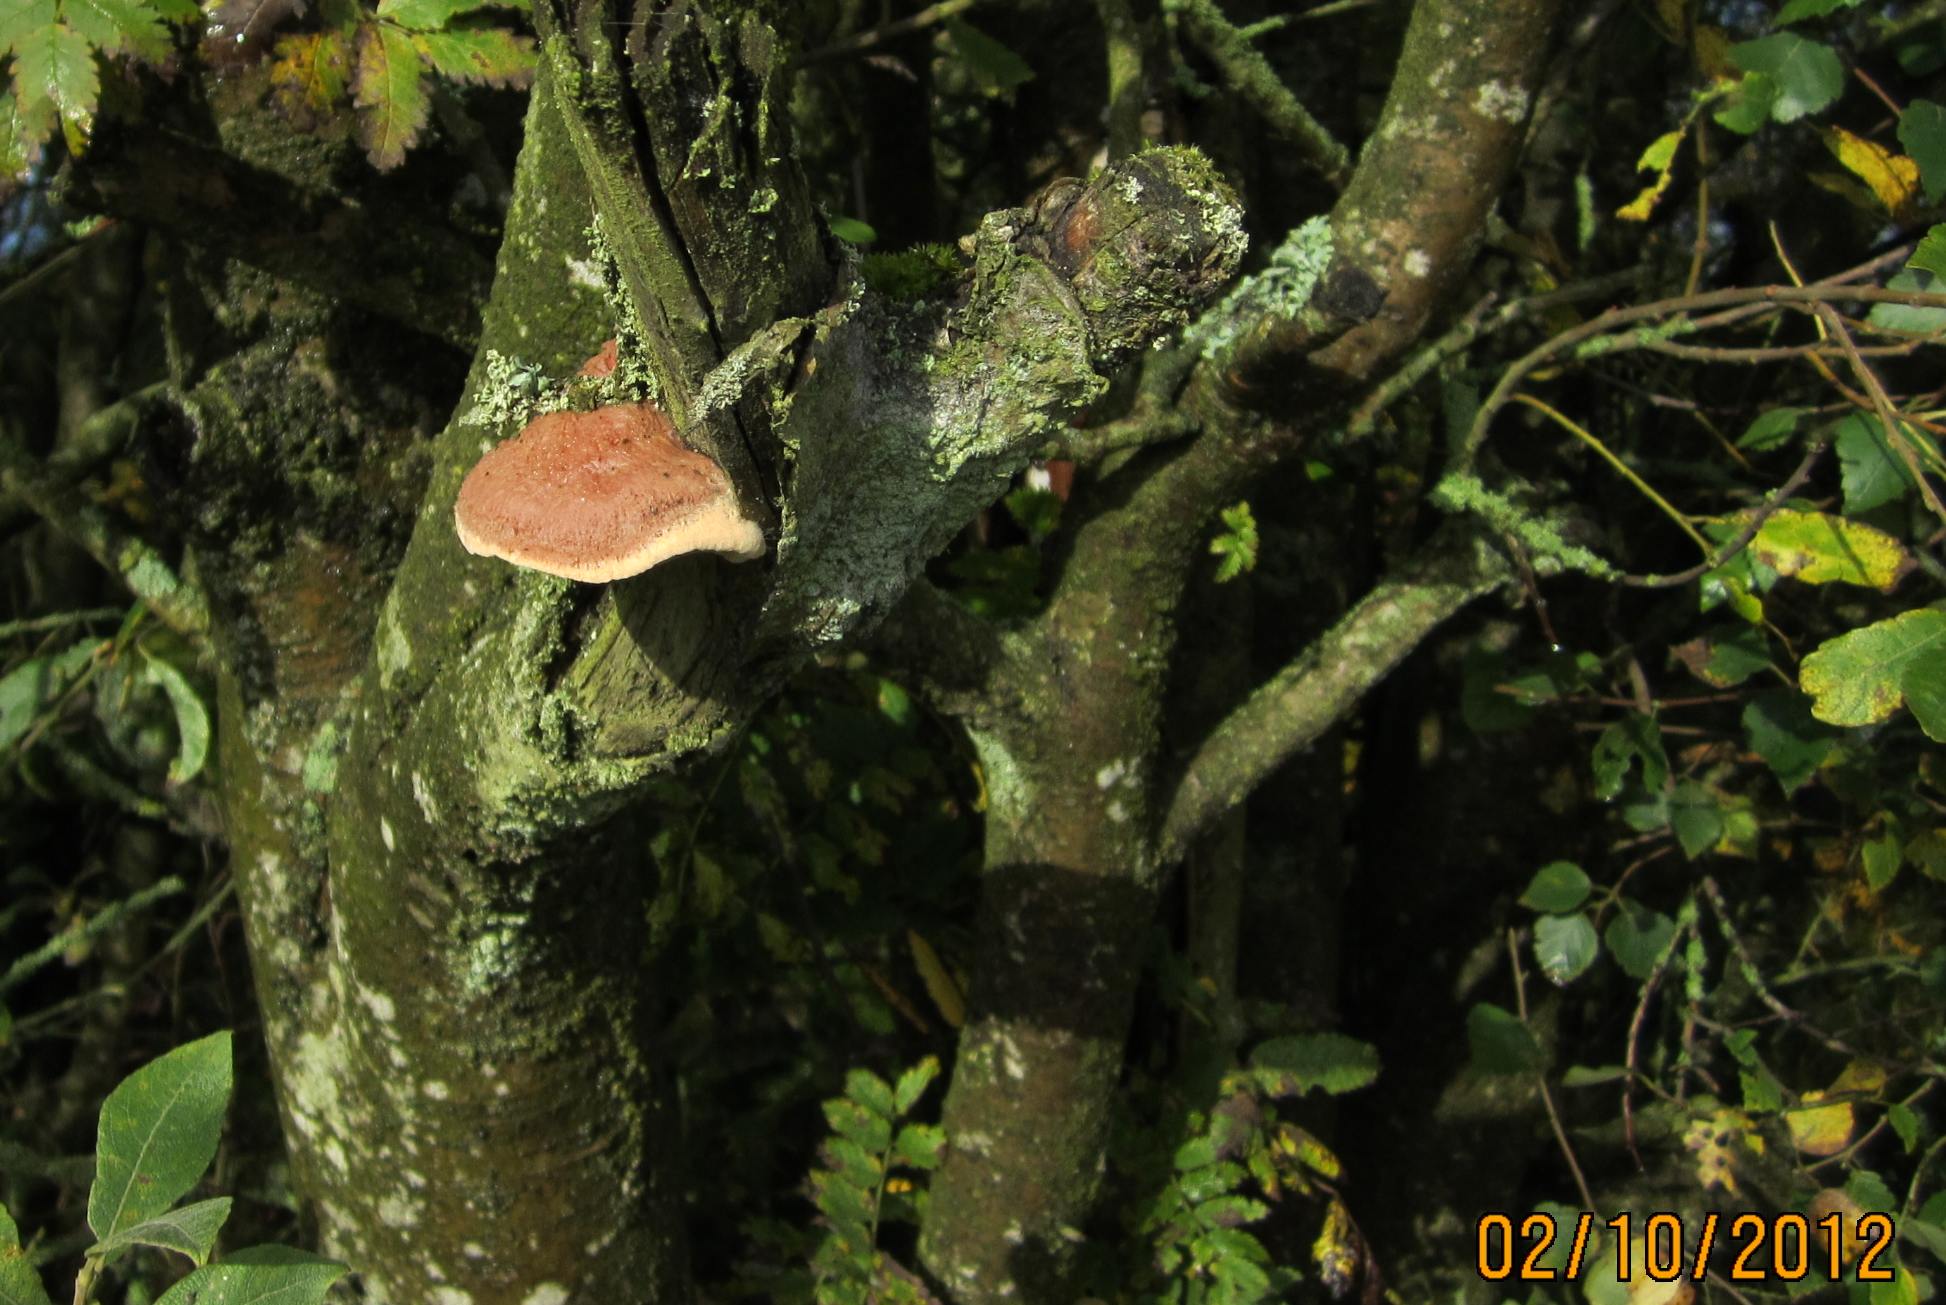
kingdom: Fungi
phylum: Basidiomycota
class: Agaricomycetes
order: Polyporales
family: Phanerochaetaceae
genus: Hapalopilus
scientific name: Hapalopilus rutilans
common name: rødlig okkerporesvamp
